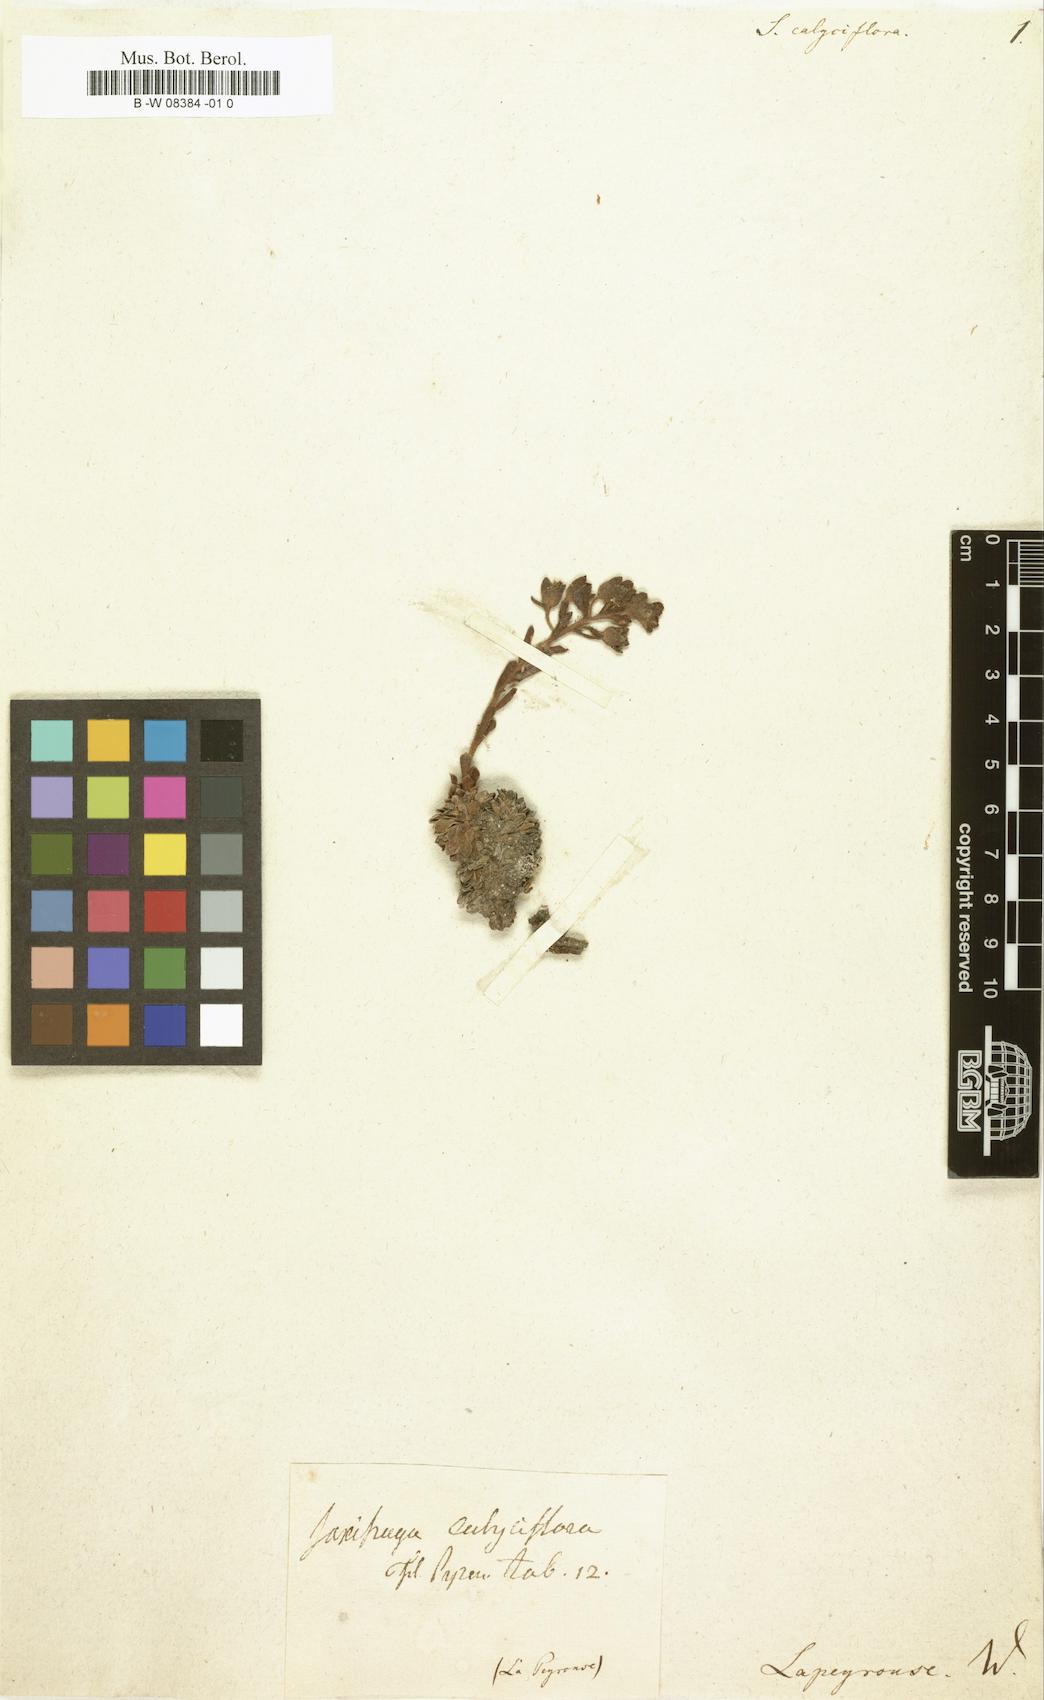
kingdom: Plantae
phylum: Tracheophyta
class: Magnoliopsida
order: Saxifragales
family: Saxifragaceae
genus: Saxifraga
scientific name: Saxifraga media
